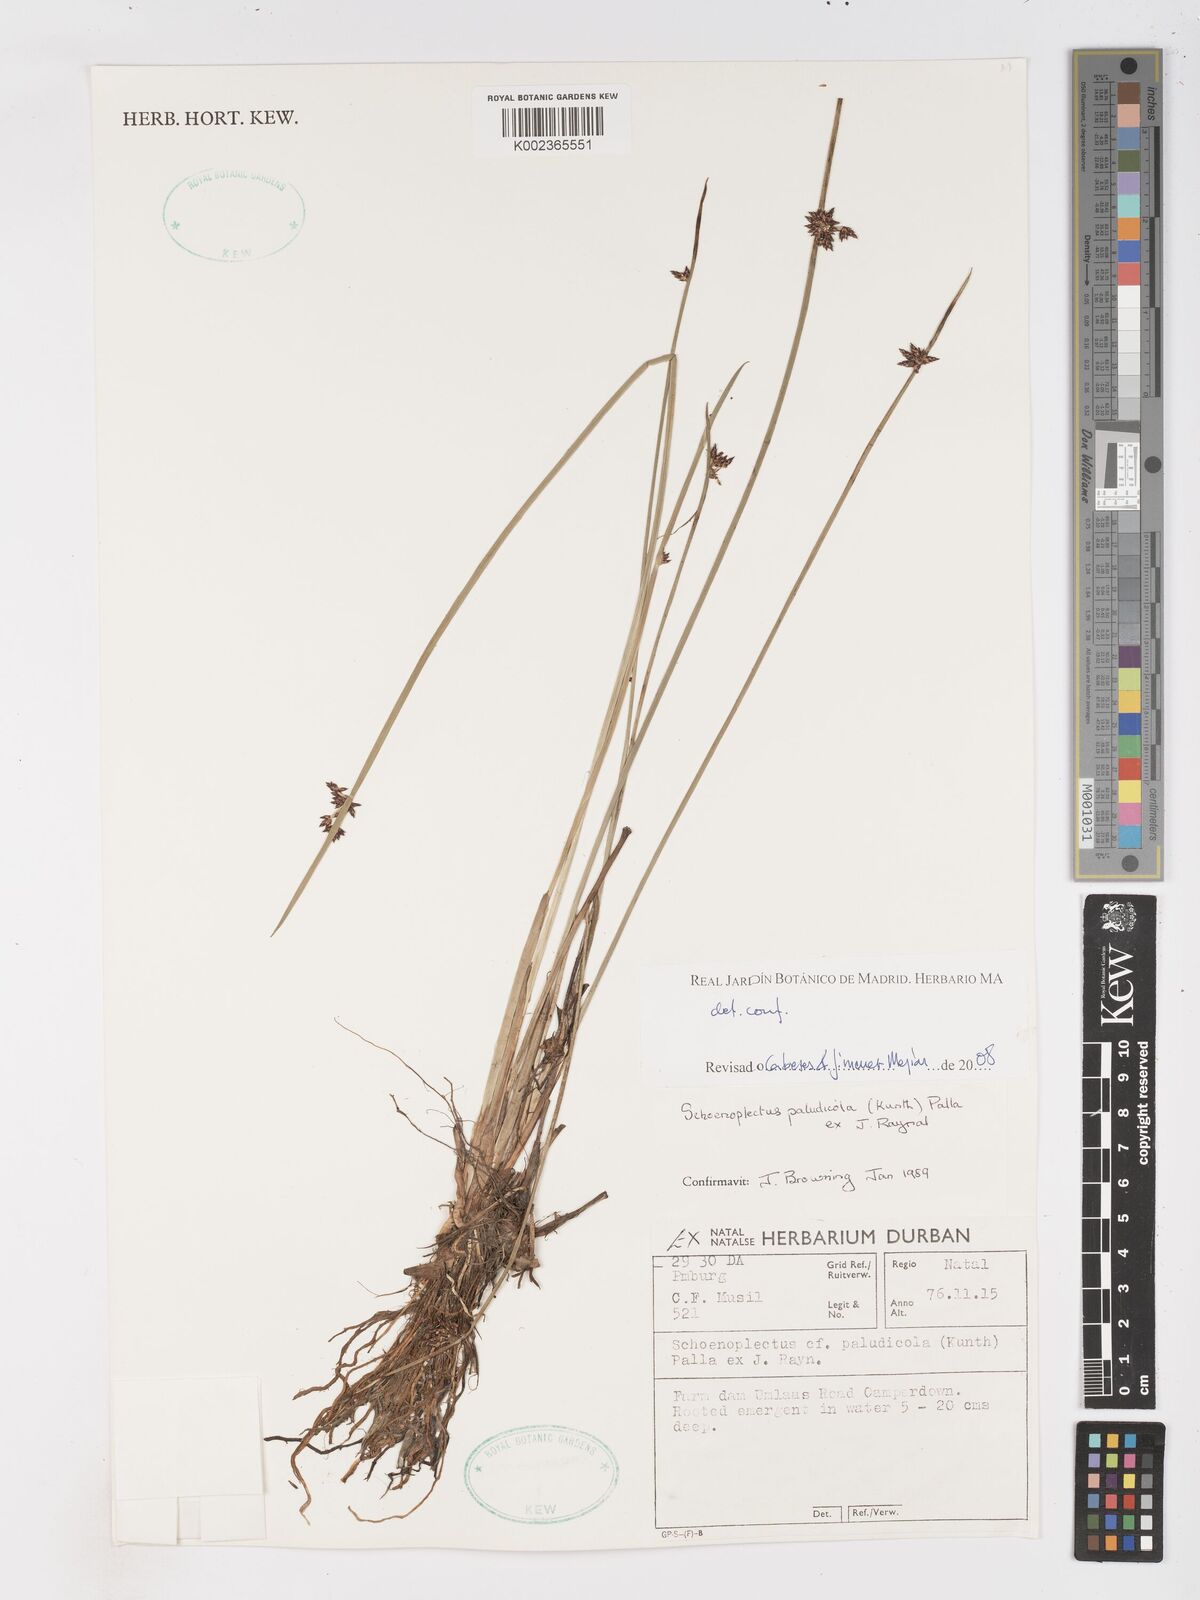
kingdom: Plantae
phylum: Tracheophyta
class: Liliopsida
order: Poales
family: Cyperaceae
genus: Schoenoplectiella
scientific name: Schoenoplectiella paludicola
